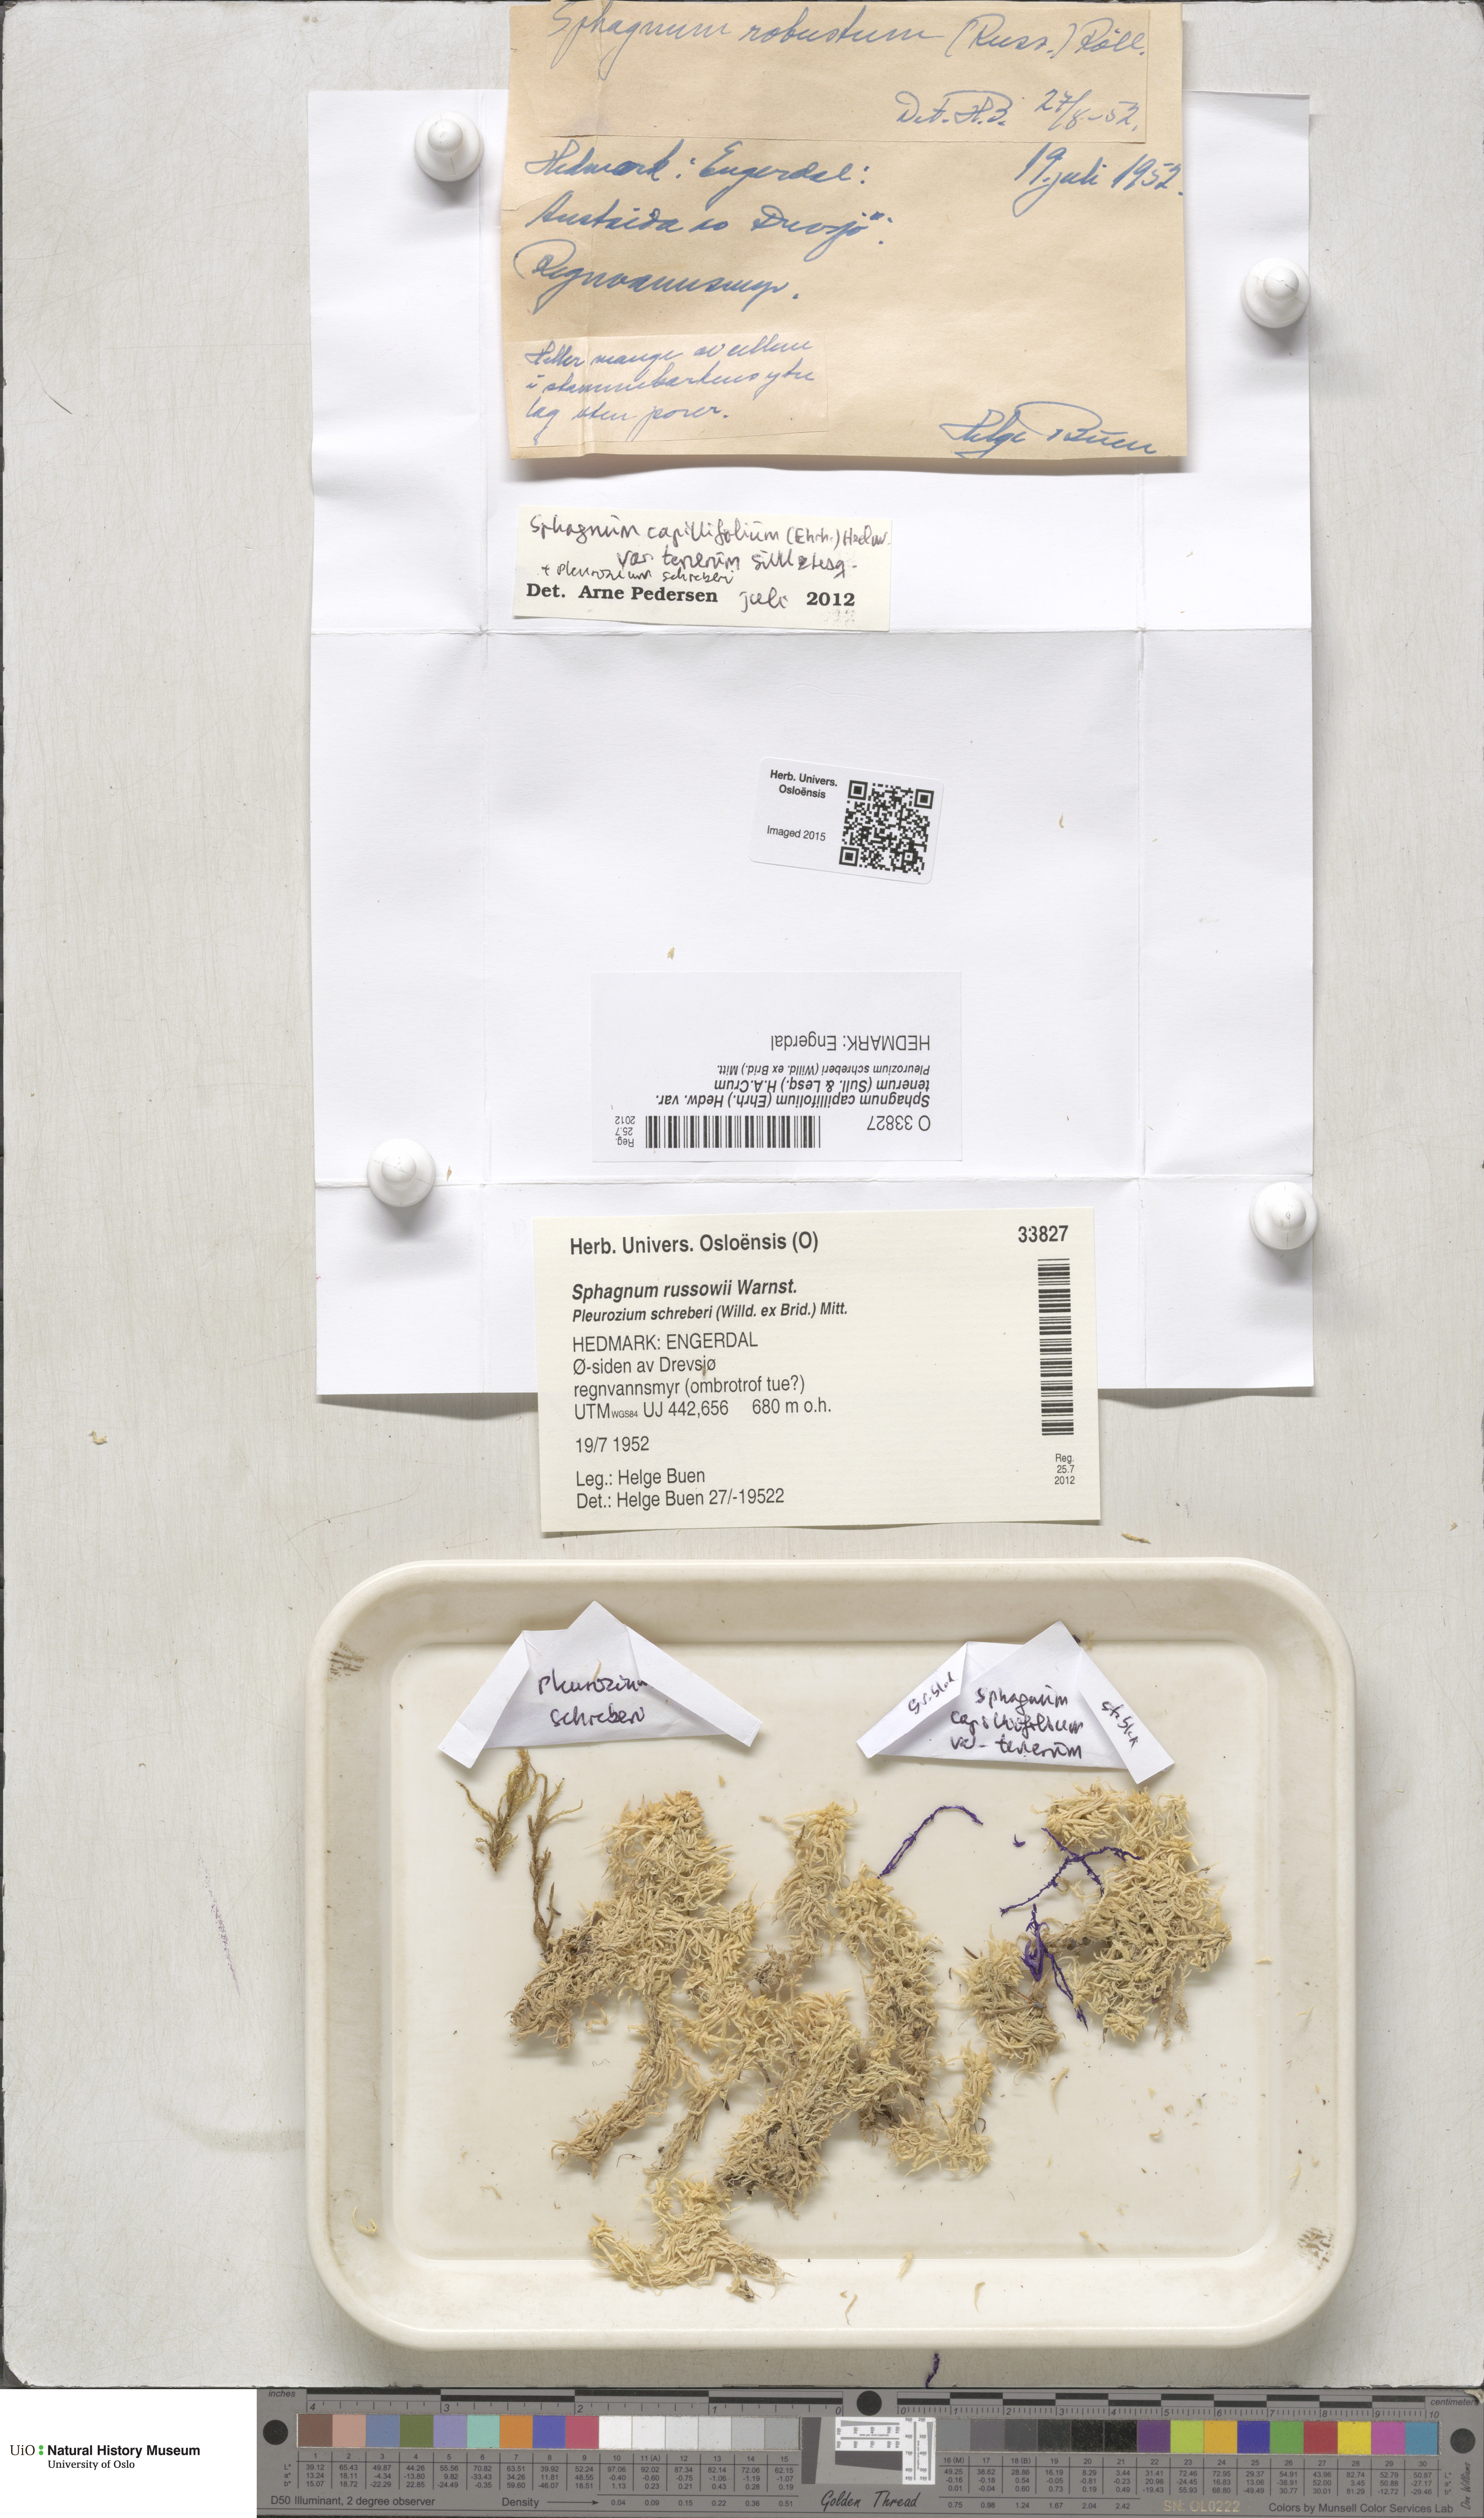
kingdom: Plantae
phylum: Bryophyta
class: Sphagnopsida
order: Sphagnales
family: Sphagnaceae
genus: Sphagnum
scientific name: Sphagnum tenerum
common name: Slender peat moss
